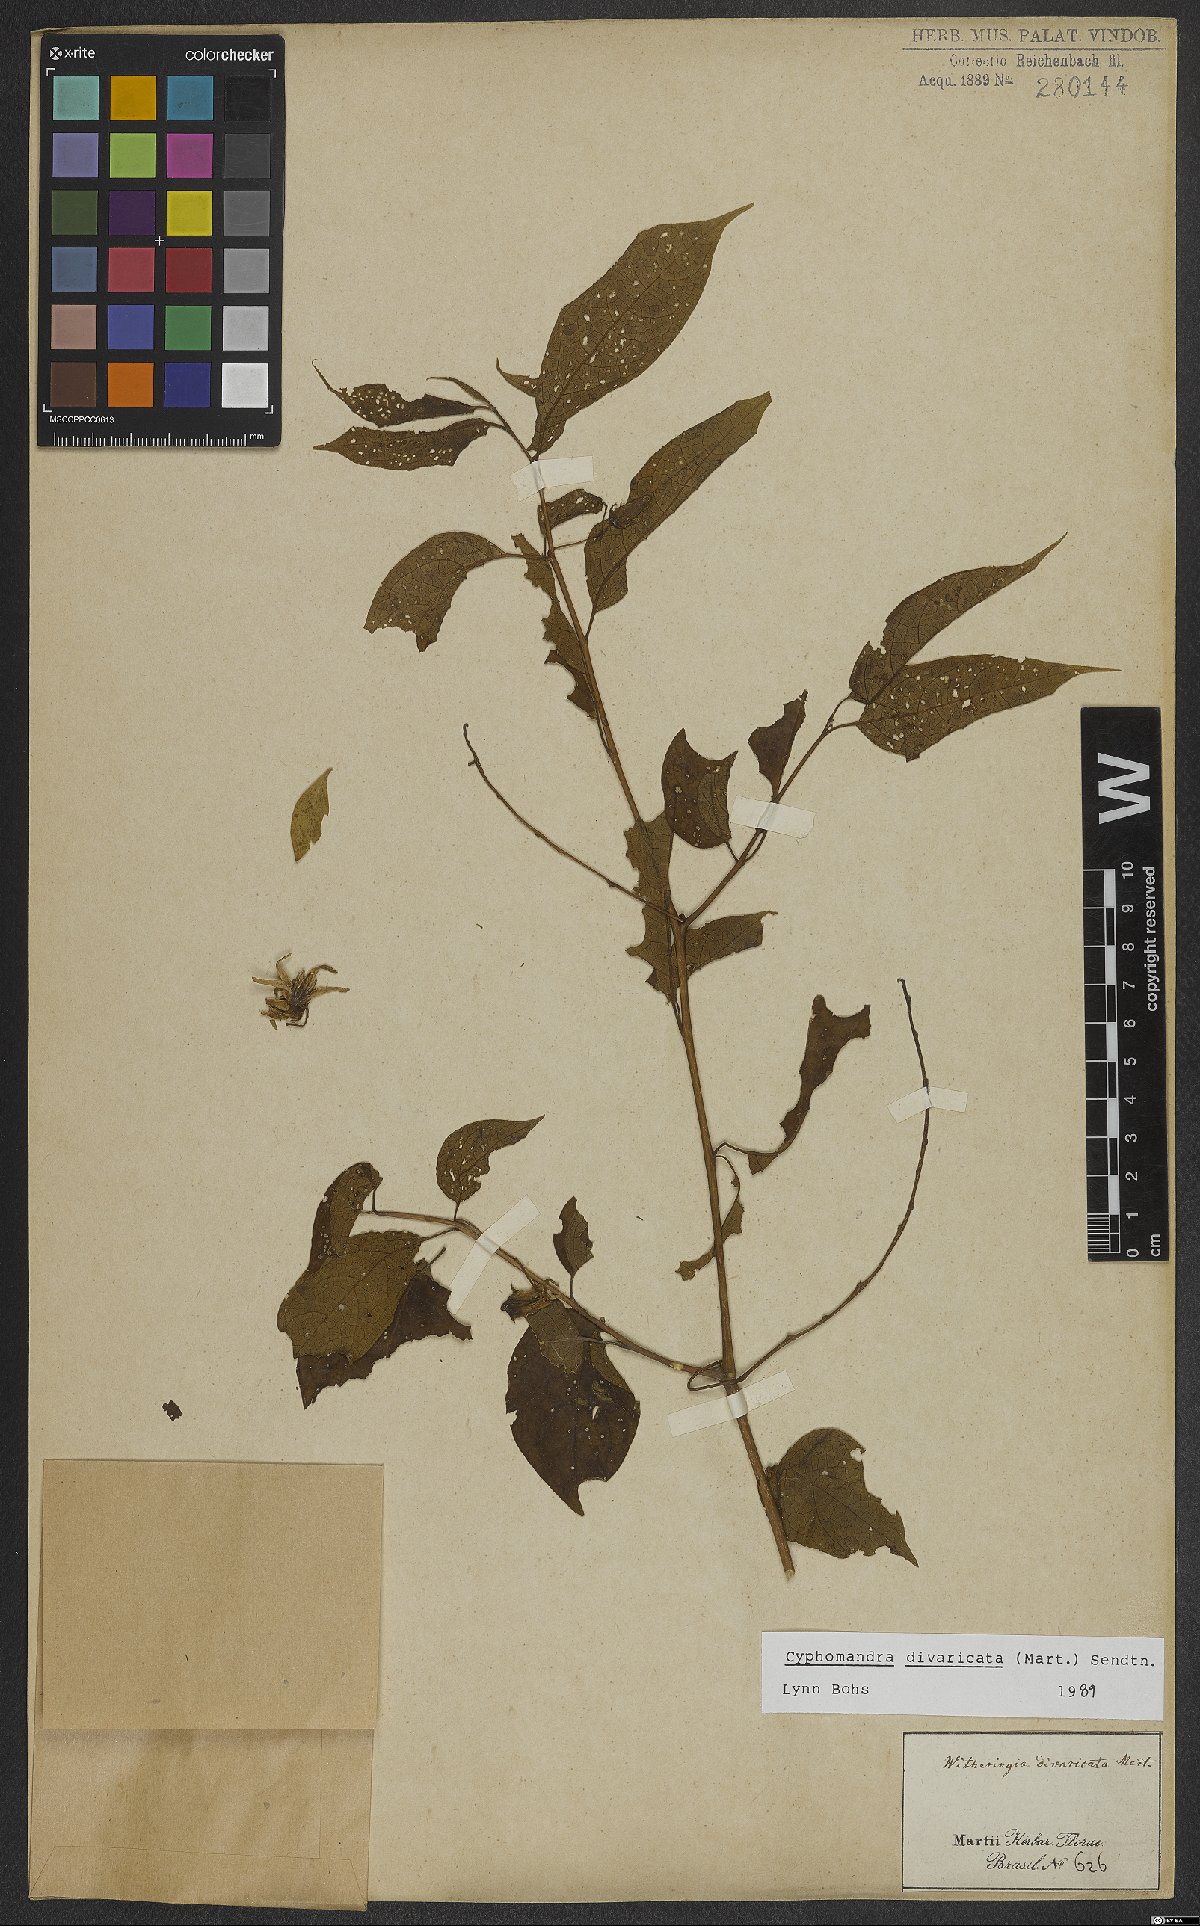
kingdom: Plantae
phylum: Tracheophyta
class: Magnoliopsida
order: Solanales
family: Solanaceae
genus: Solanum
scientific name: Solanum melissarum
